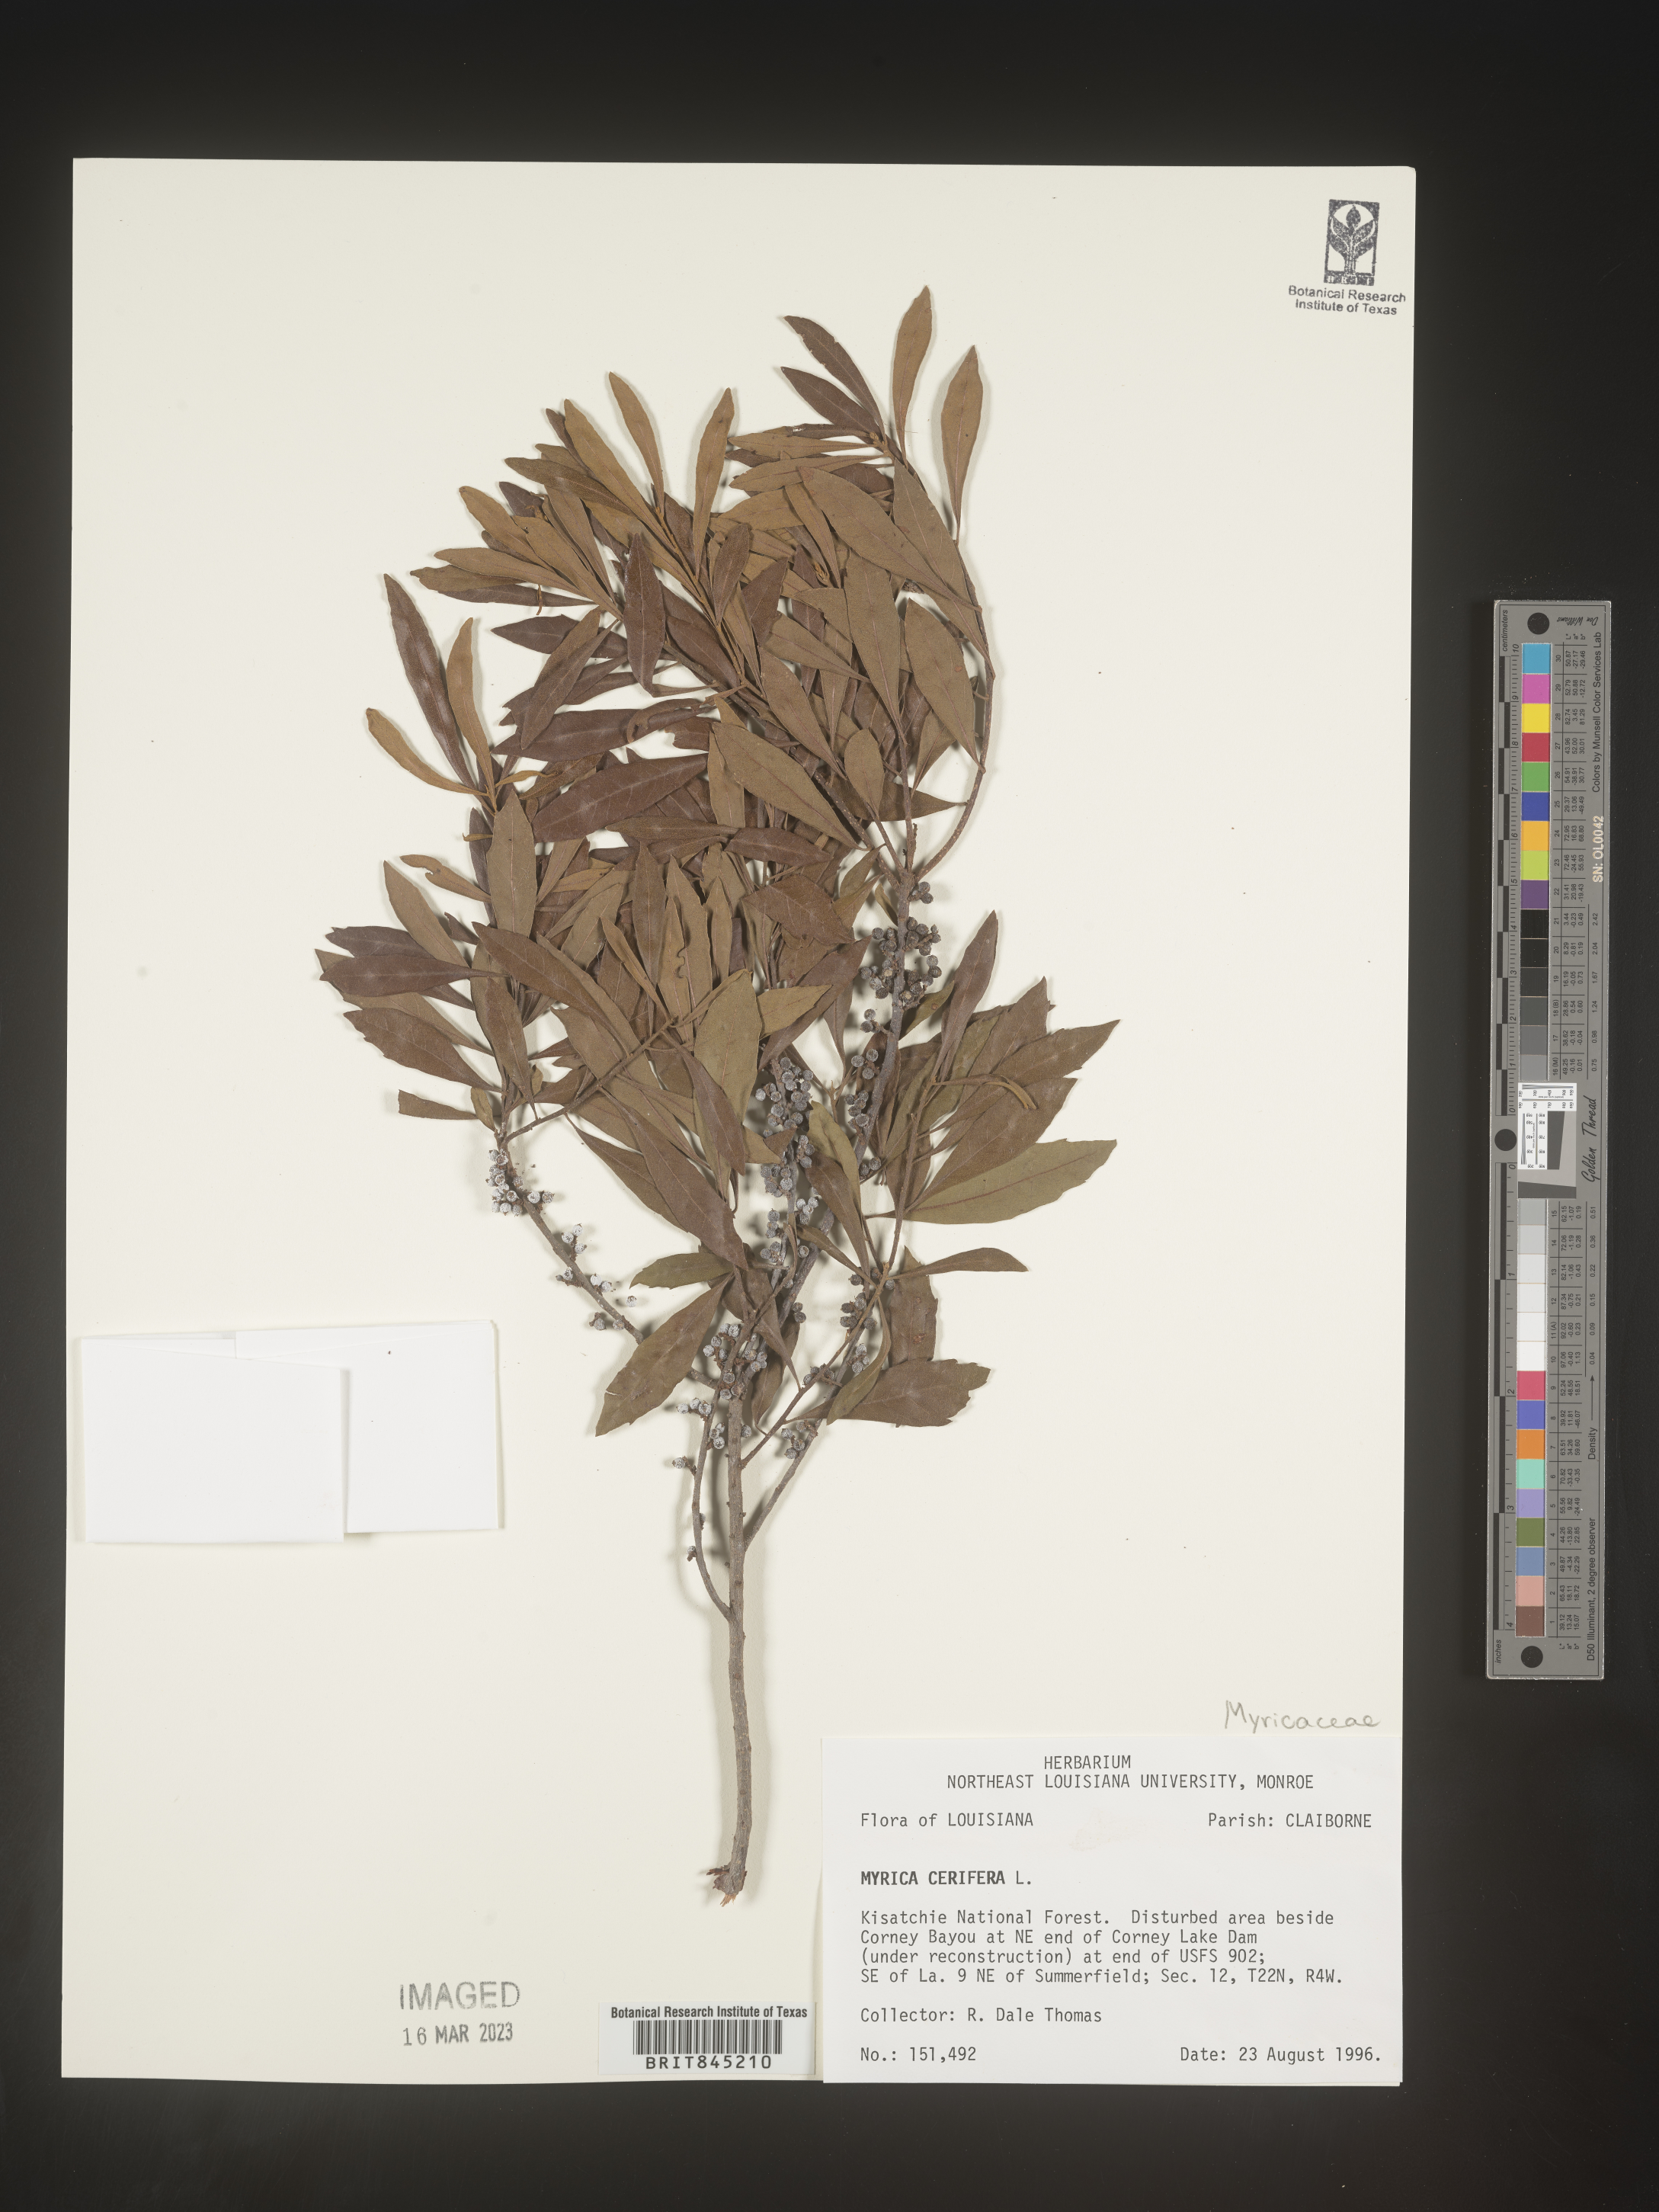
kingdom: Plantae
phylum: Tracheophyta
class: Magnoliopsida
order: Fagales
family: Myricaceae
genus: Morella
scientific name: Morella cerifera
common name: Wax myrtle
